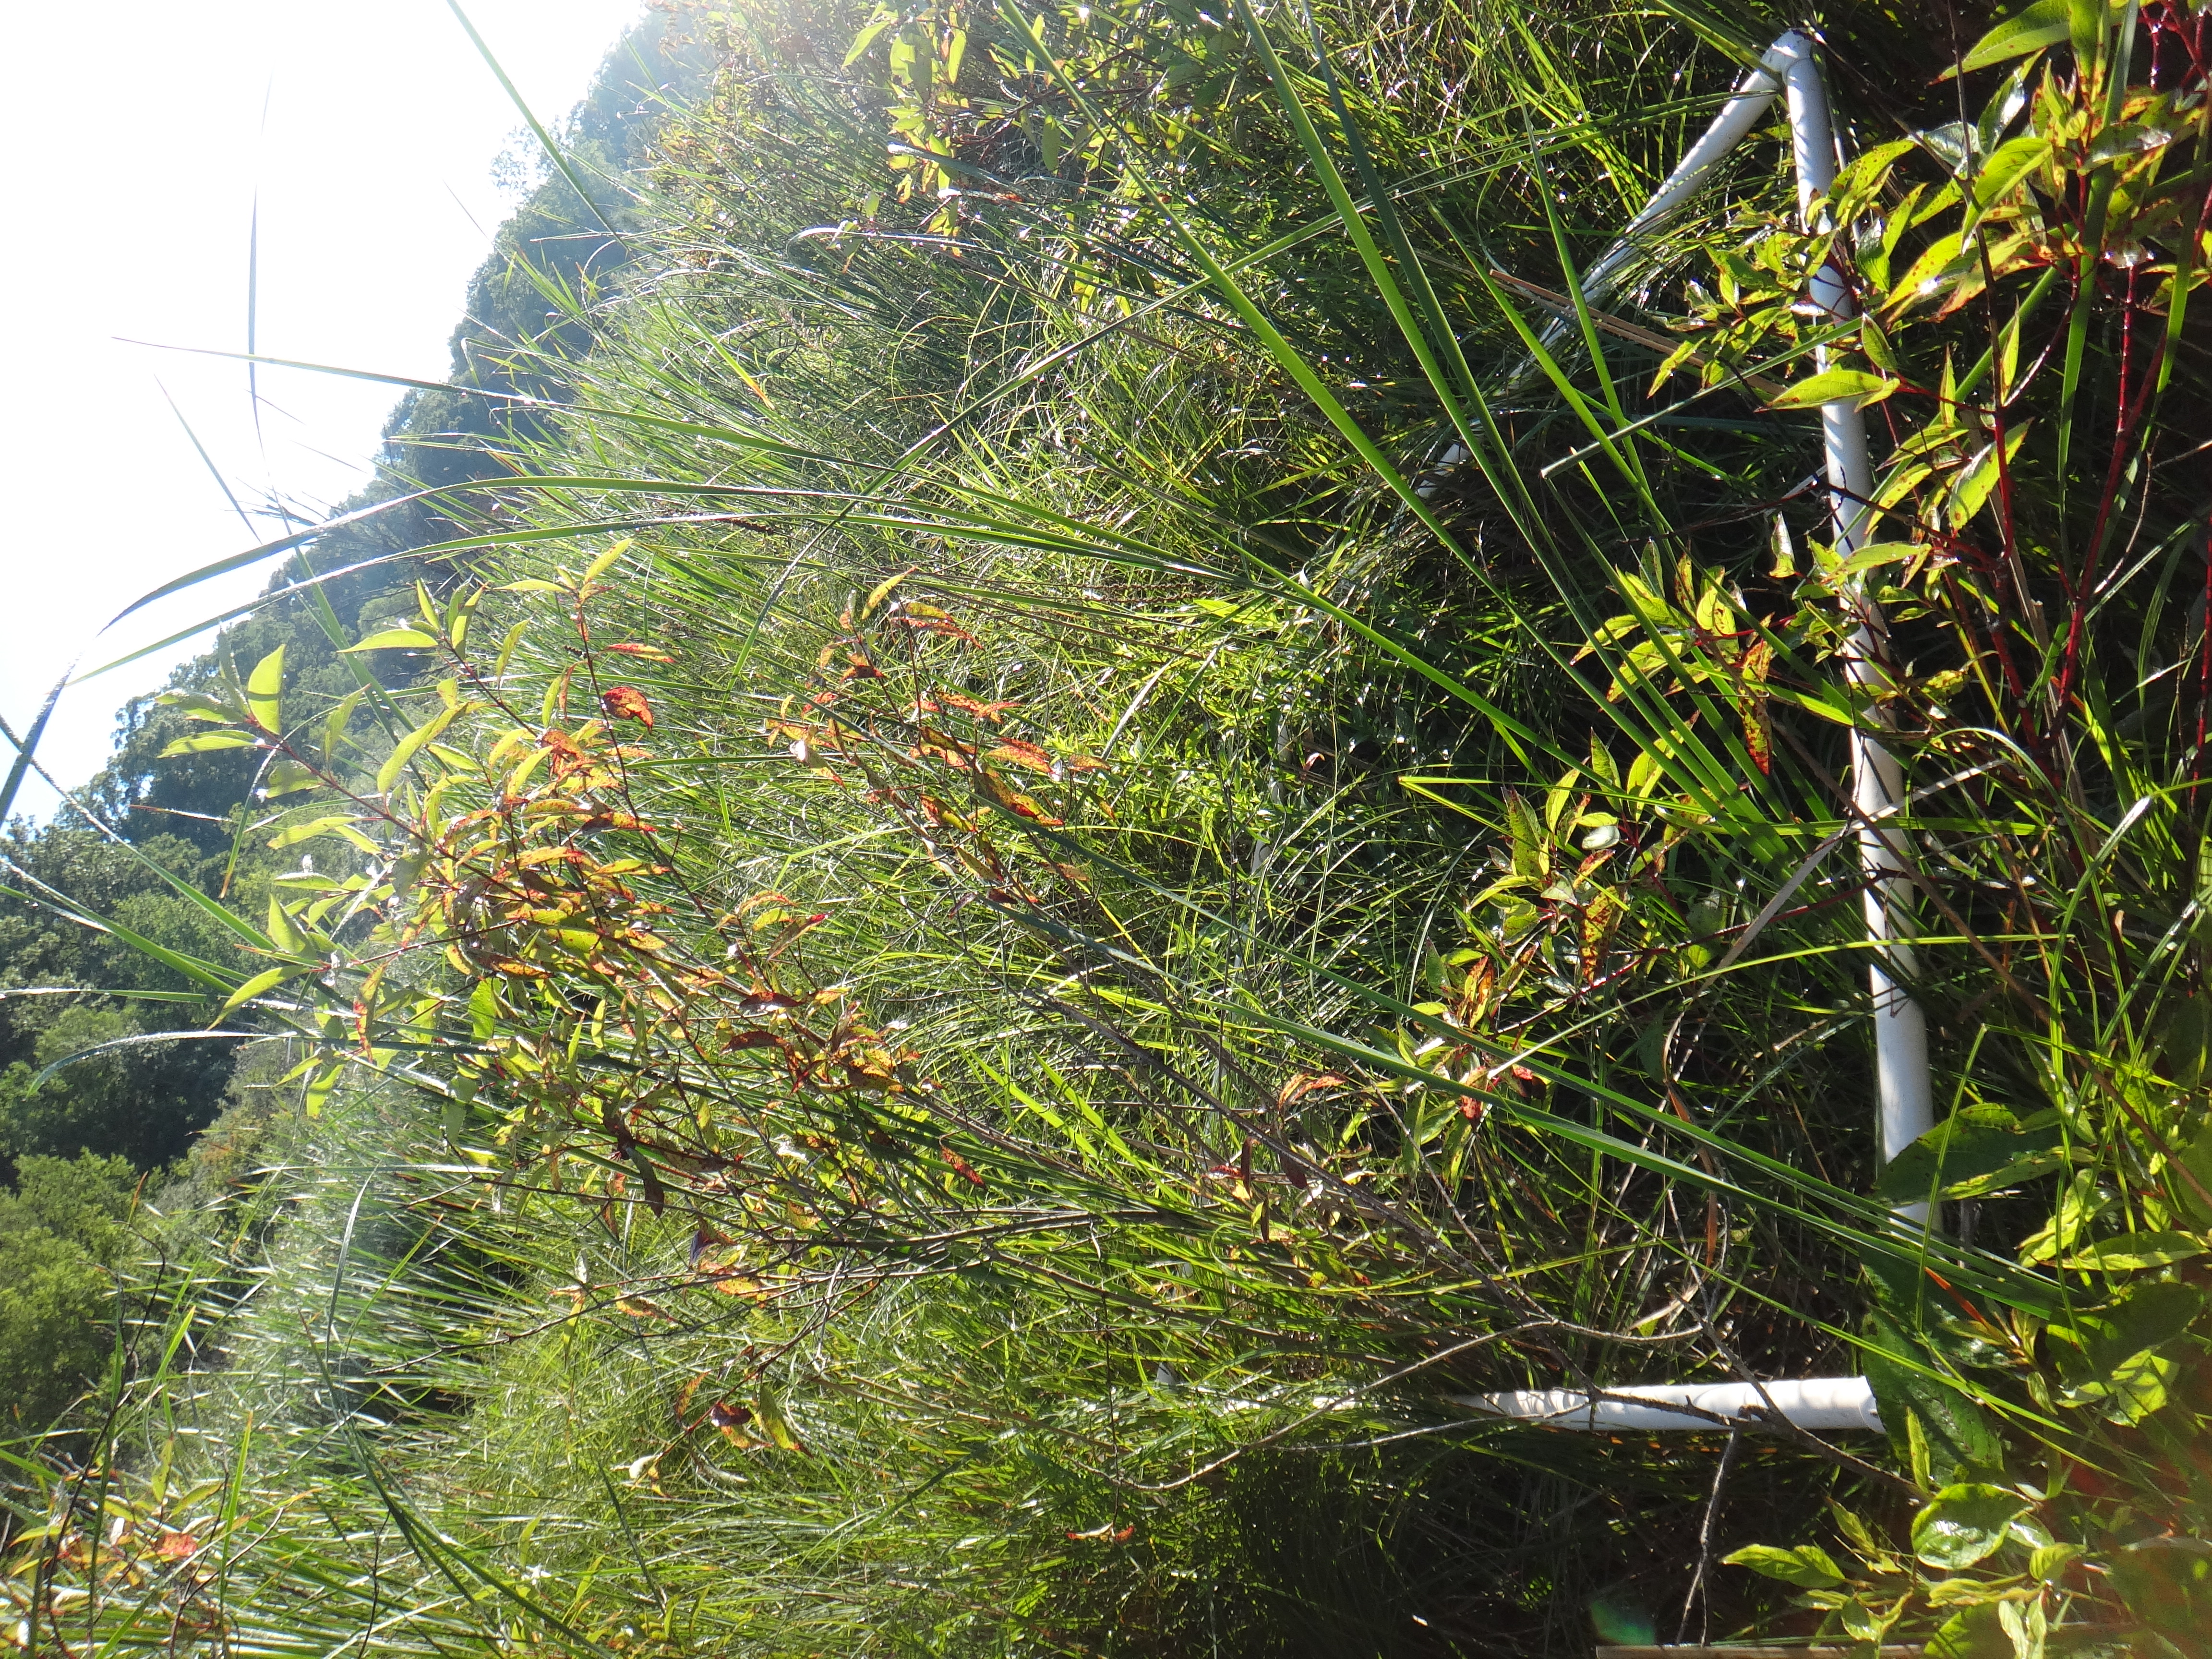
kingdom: Plantae
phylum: Tracheophyta
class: Magnoliopsida
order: Rosales
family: Urticaceae
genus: Pilea
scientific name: Pilea pumila
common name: Clearweed
